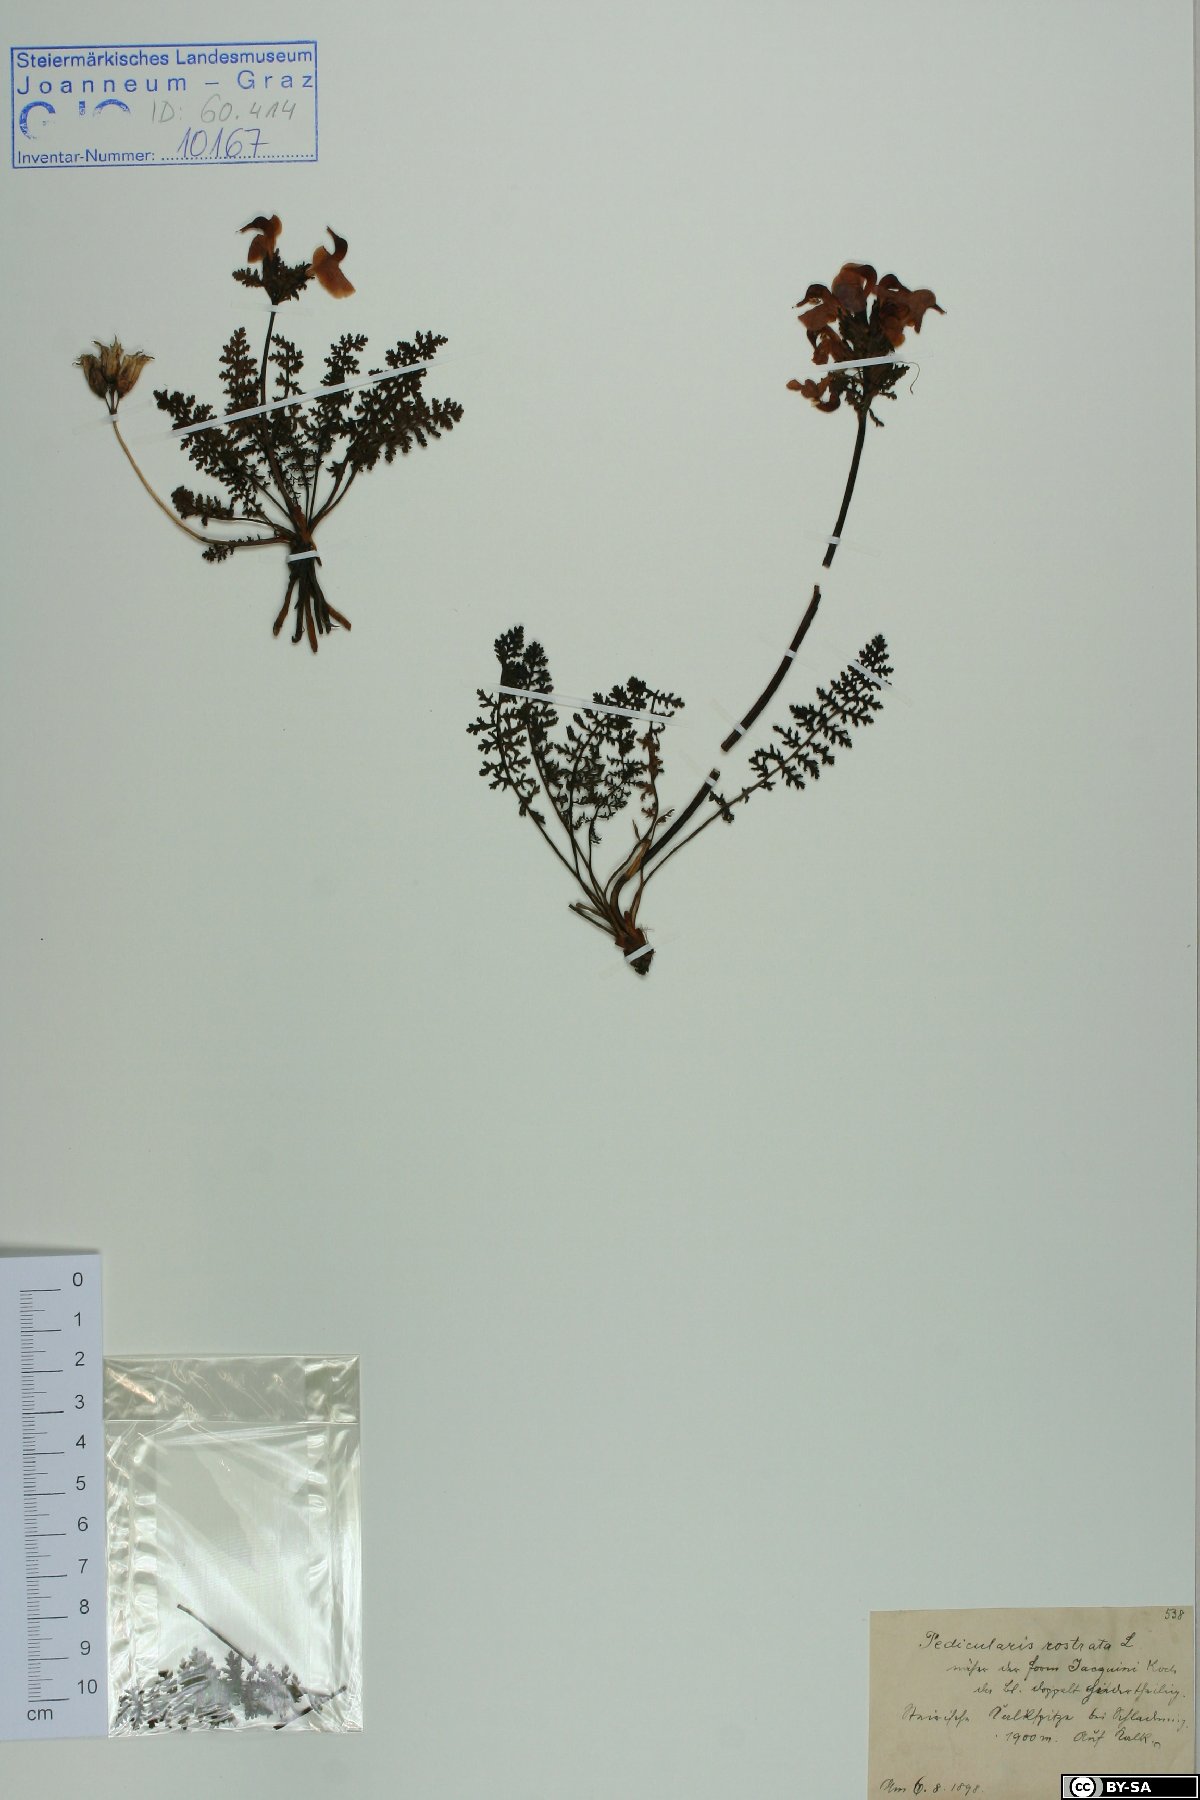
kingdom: Plantae
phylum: Tracheophyta
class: Magnoliopsida
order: Lamiales
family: Orobanchaceae
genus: Pedicularis
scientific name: Pedicularis rostratocapitata
